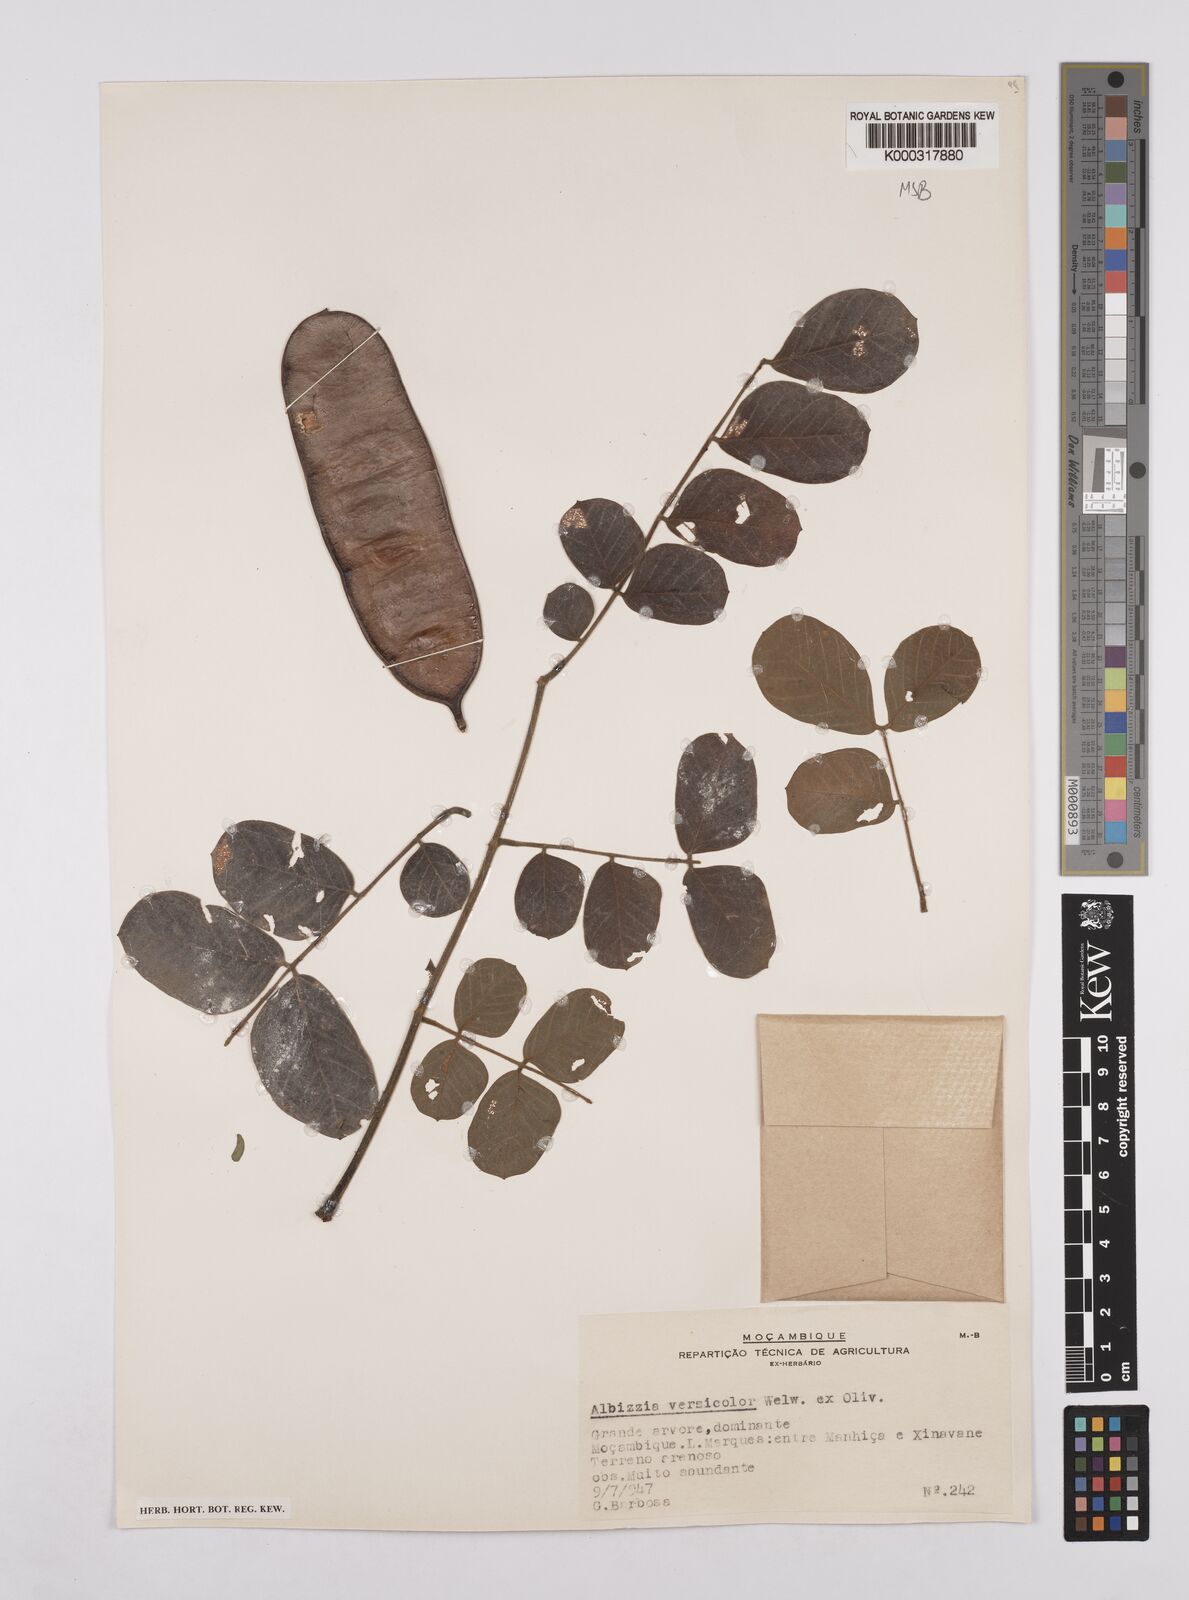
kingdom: Plantae
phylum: Tracheophyta
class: Magnoliopsida
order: Fabales
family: Fabaceae
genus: Albizia
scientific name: Albizia versicolor
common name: Poisonpod
